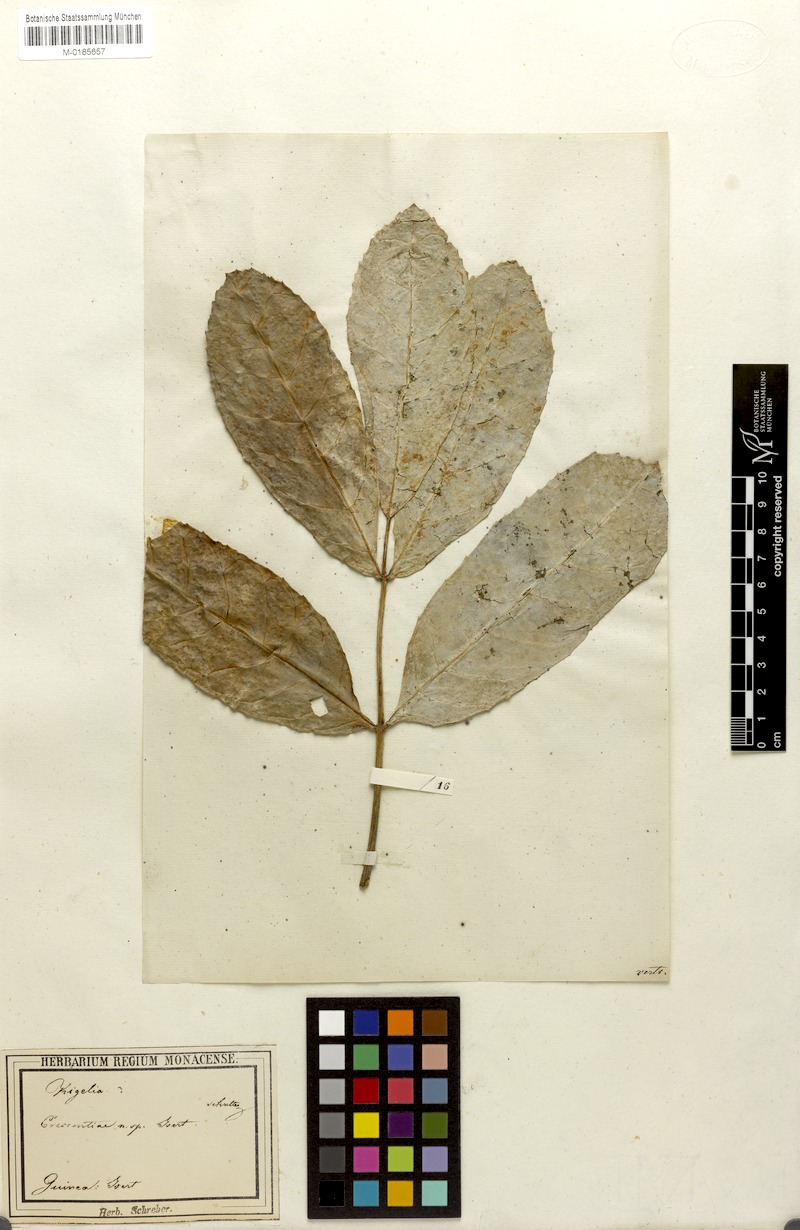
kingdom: Plantae
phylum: Tracheophyta
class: Magnoliopsida
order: Lamiales
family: Bignoniaceae
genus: Kigelia
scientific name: Kigelia africana
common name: Sausage tree
